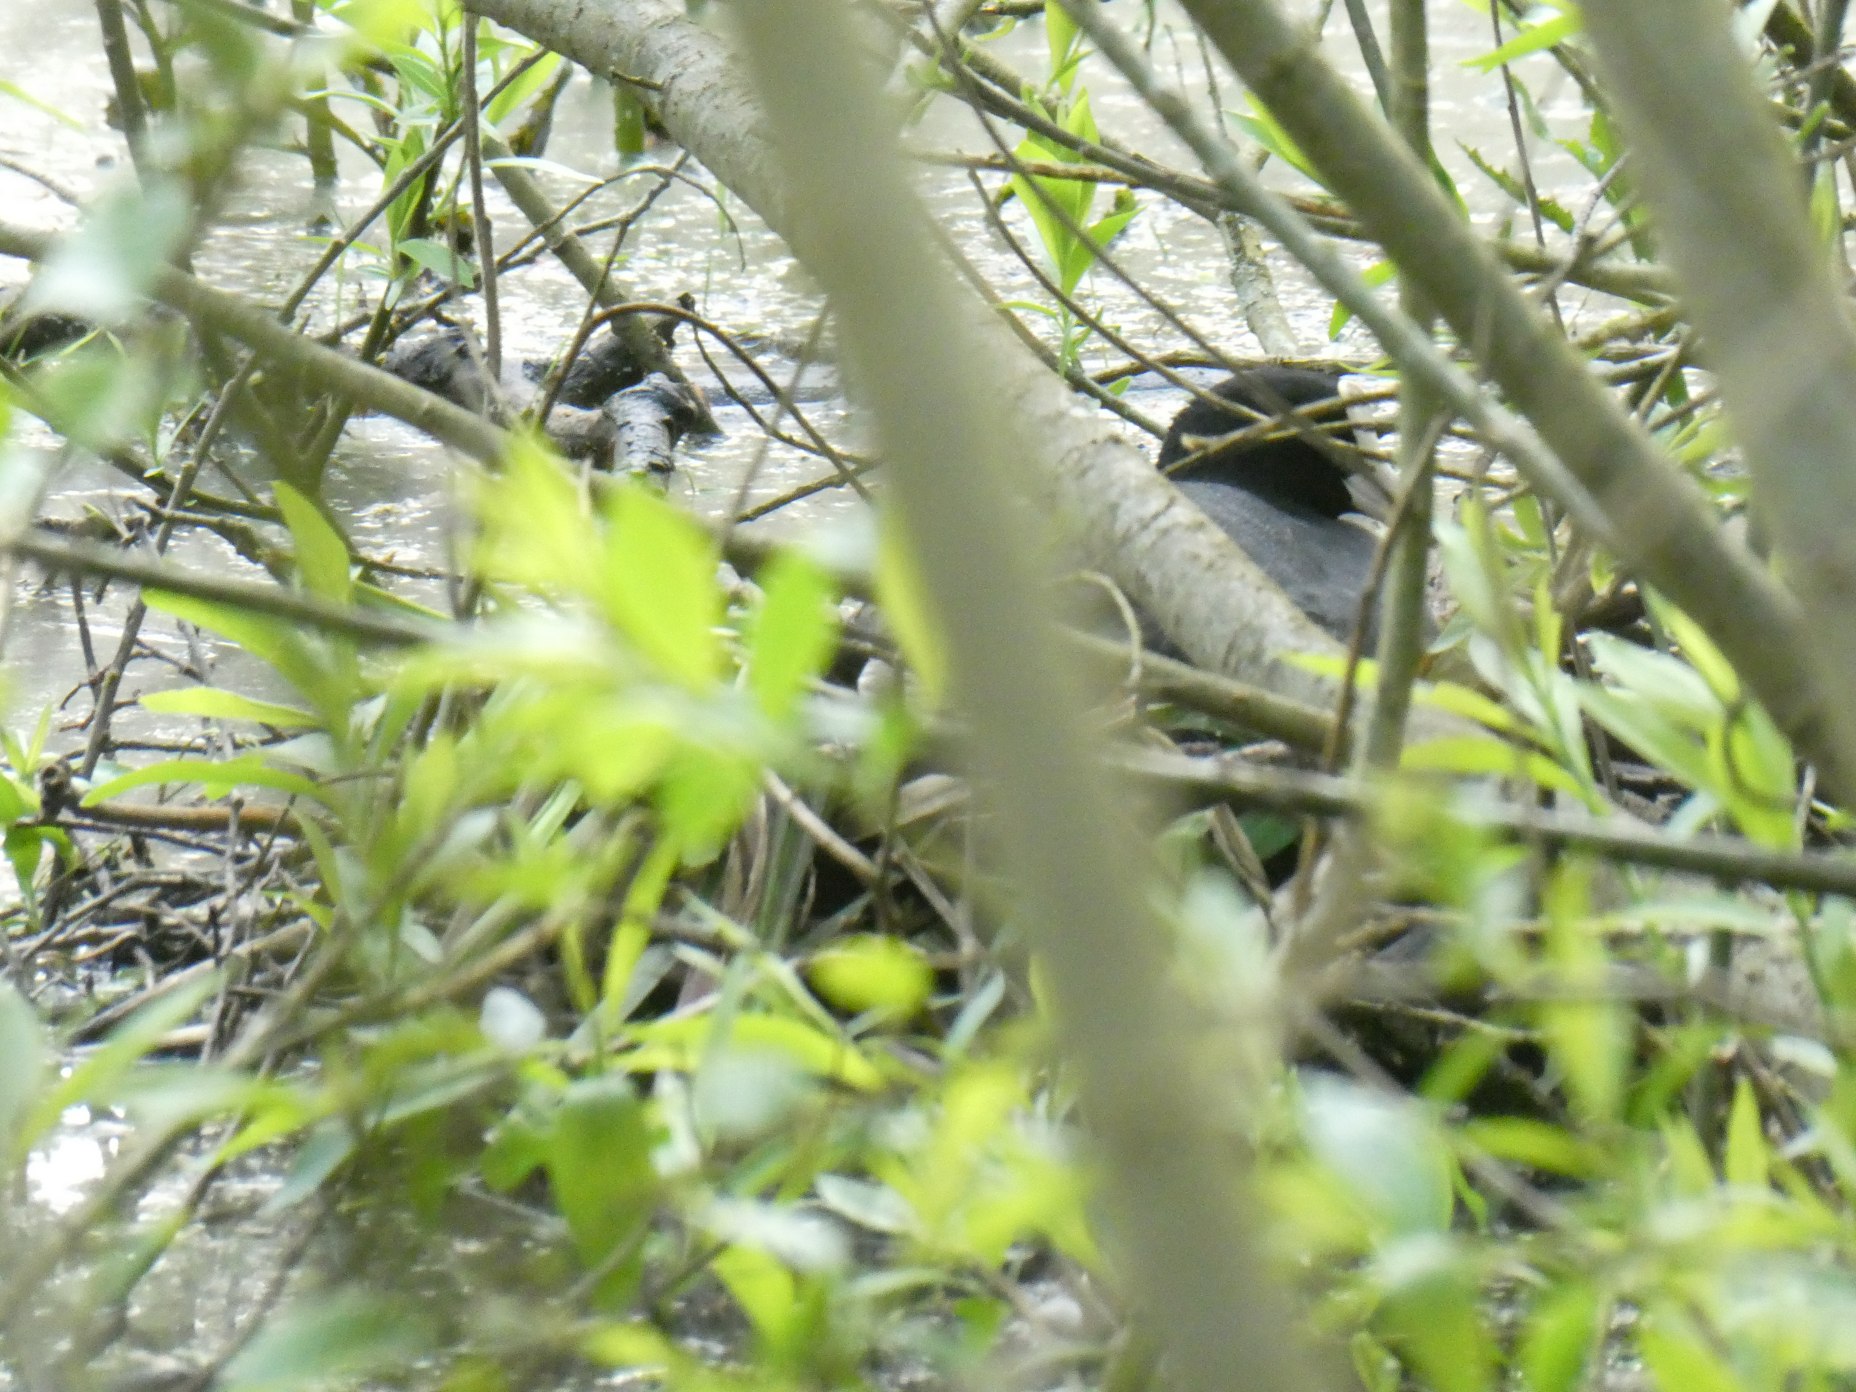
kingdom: Animalia
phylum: Chordata
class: Aves
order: Gruiformes
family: Rallidae
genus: Fulica
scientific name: Fulica atra
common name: Blishøne
